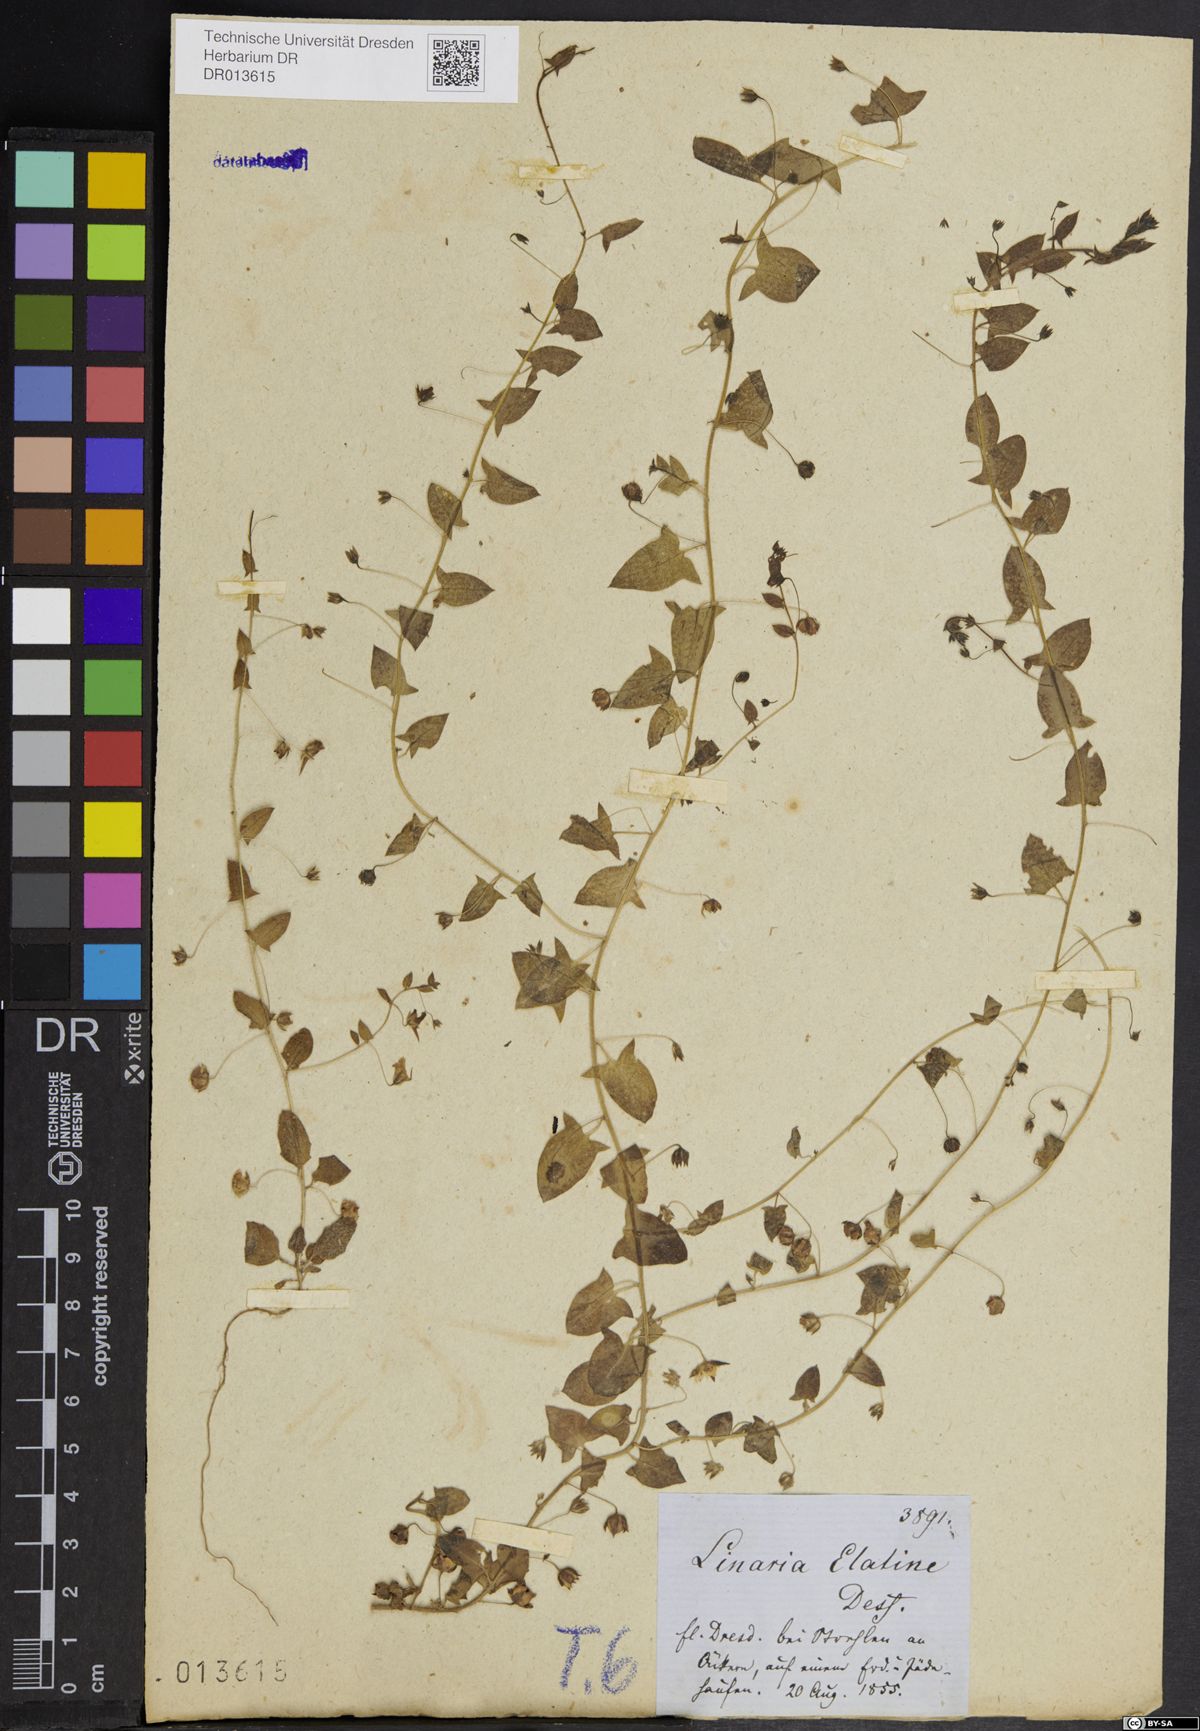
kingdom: Plantae
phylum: Tracheophyta
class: Magnoliopsida
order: Lamiales
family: Plantaginaceae
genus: Kickxia
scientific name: Kickxia elatine
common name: Sharp-leaved fluellen
